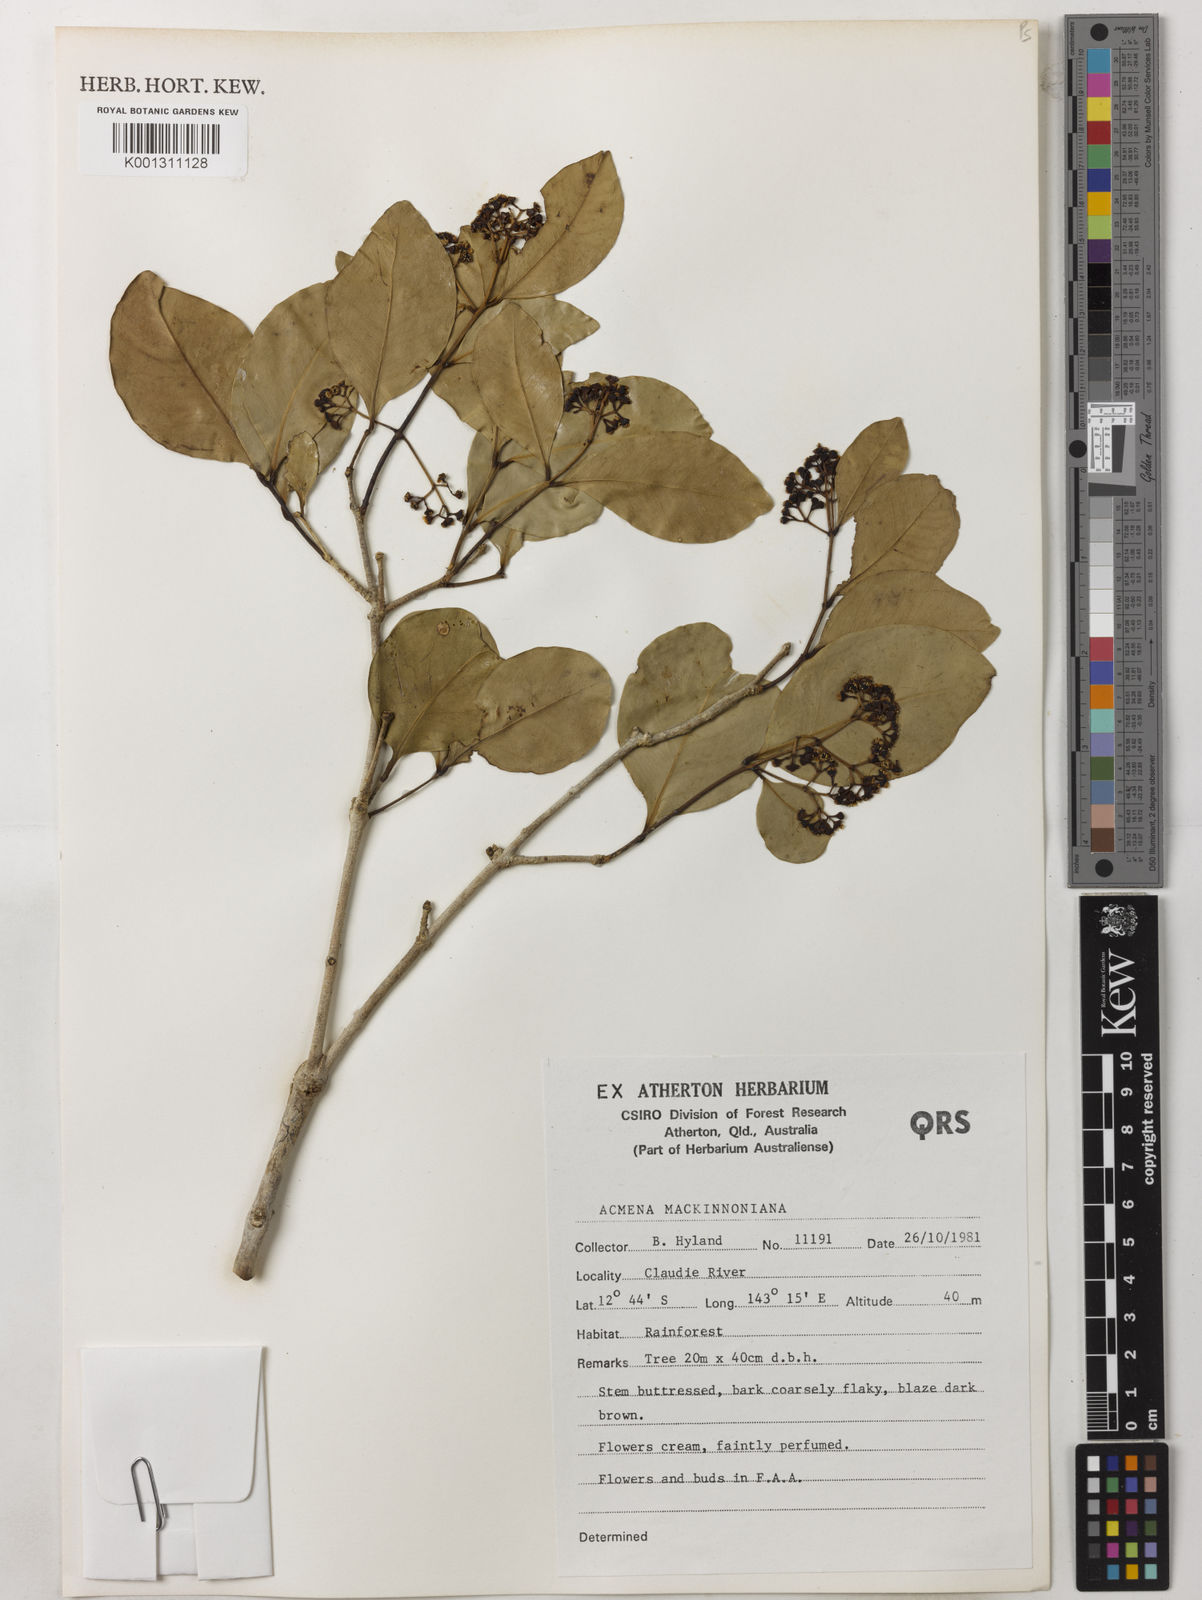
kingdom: Plantae
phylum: Tracheophyta
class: Magnoliopsida
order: Myrtales
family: Myrtaceae
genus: Syzygium
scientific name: Syzygium mackinnonianum
